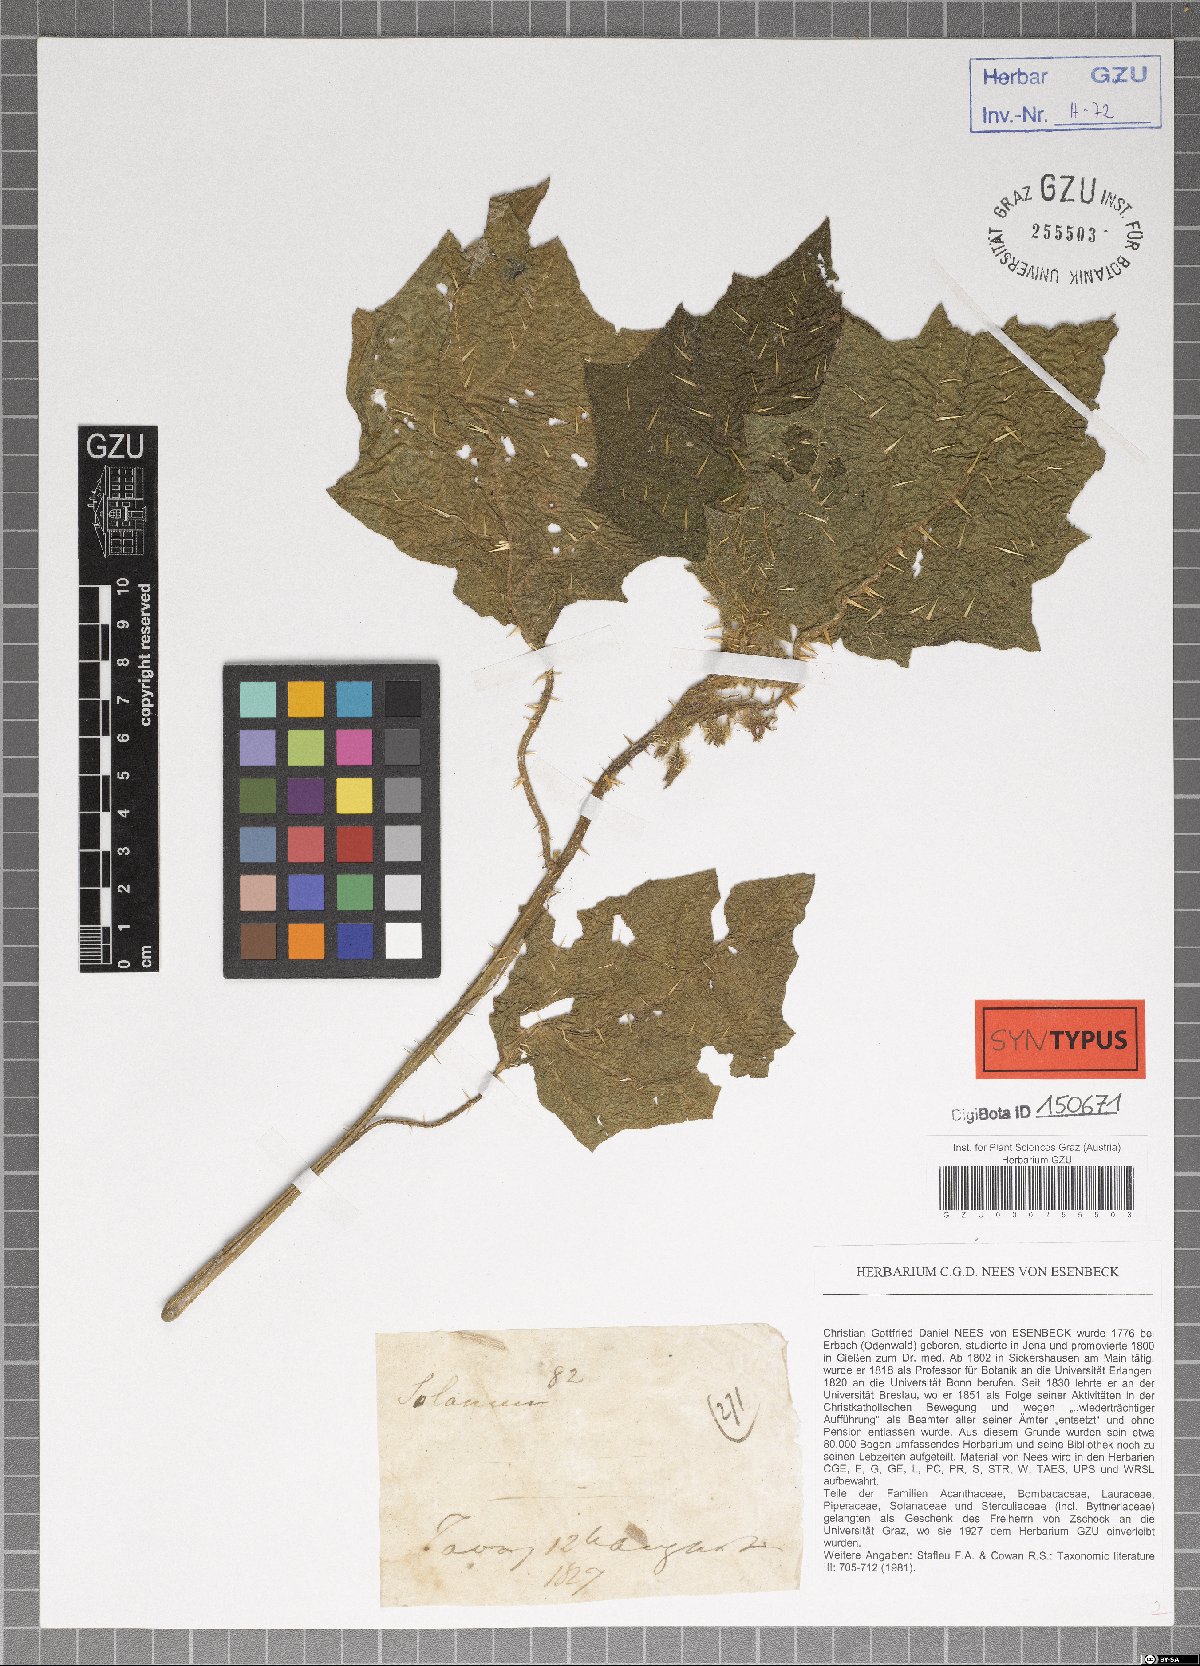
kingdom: Plantae
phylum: Tracheophyta
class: Magnoliopsida
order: Solanales
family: Solanaceae
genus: Solanum
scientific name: Solanum barbisetum
